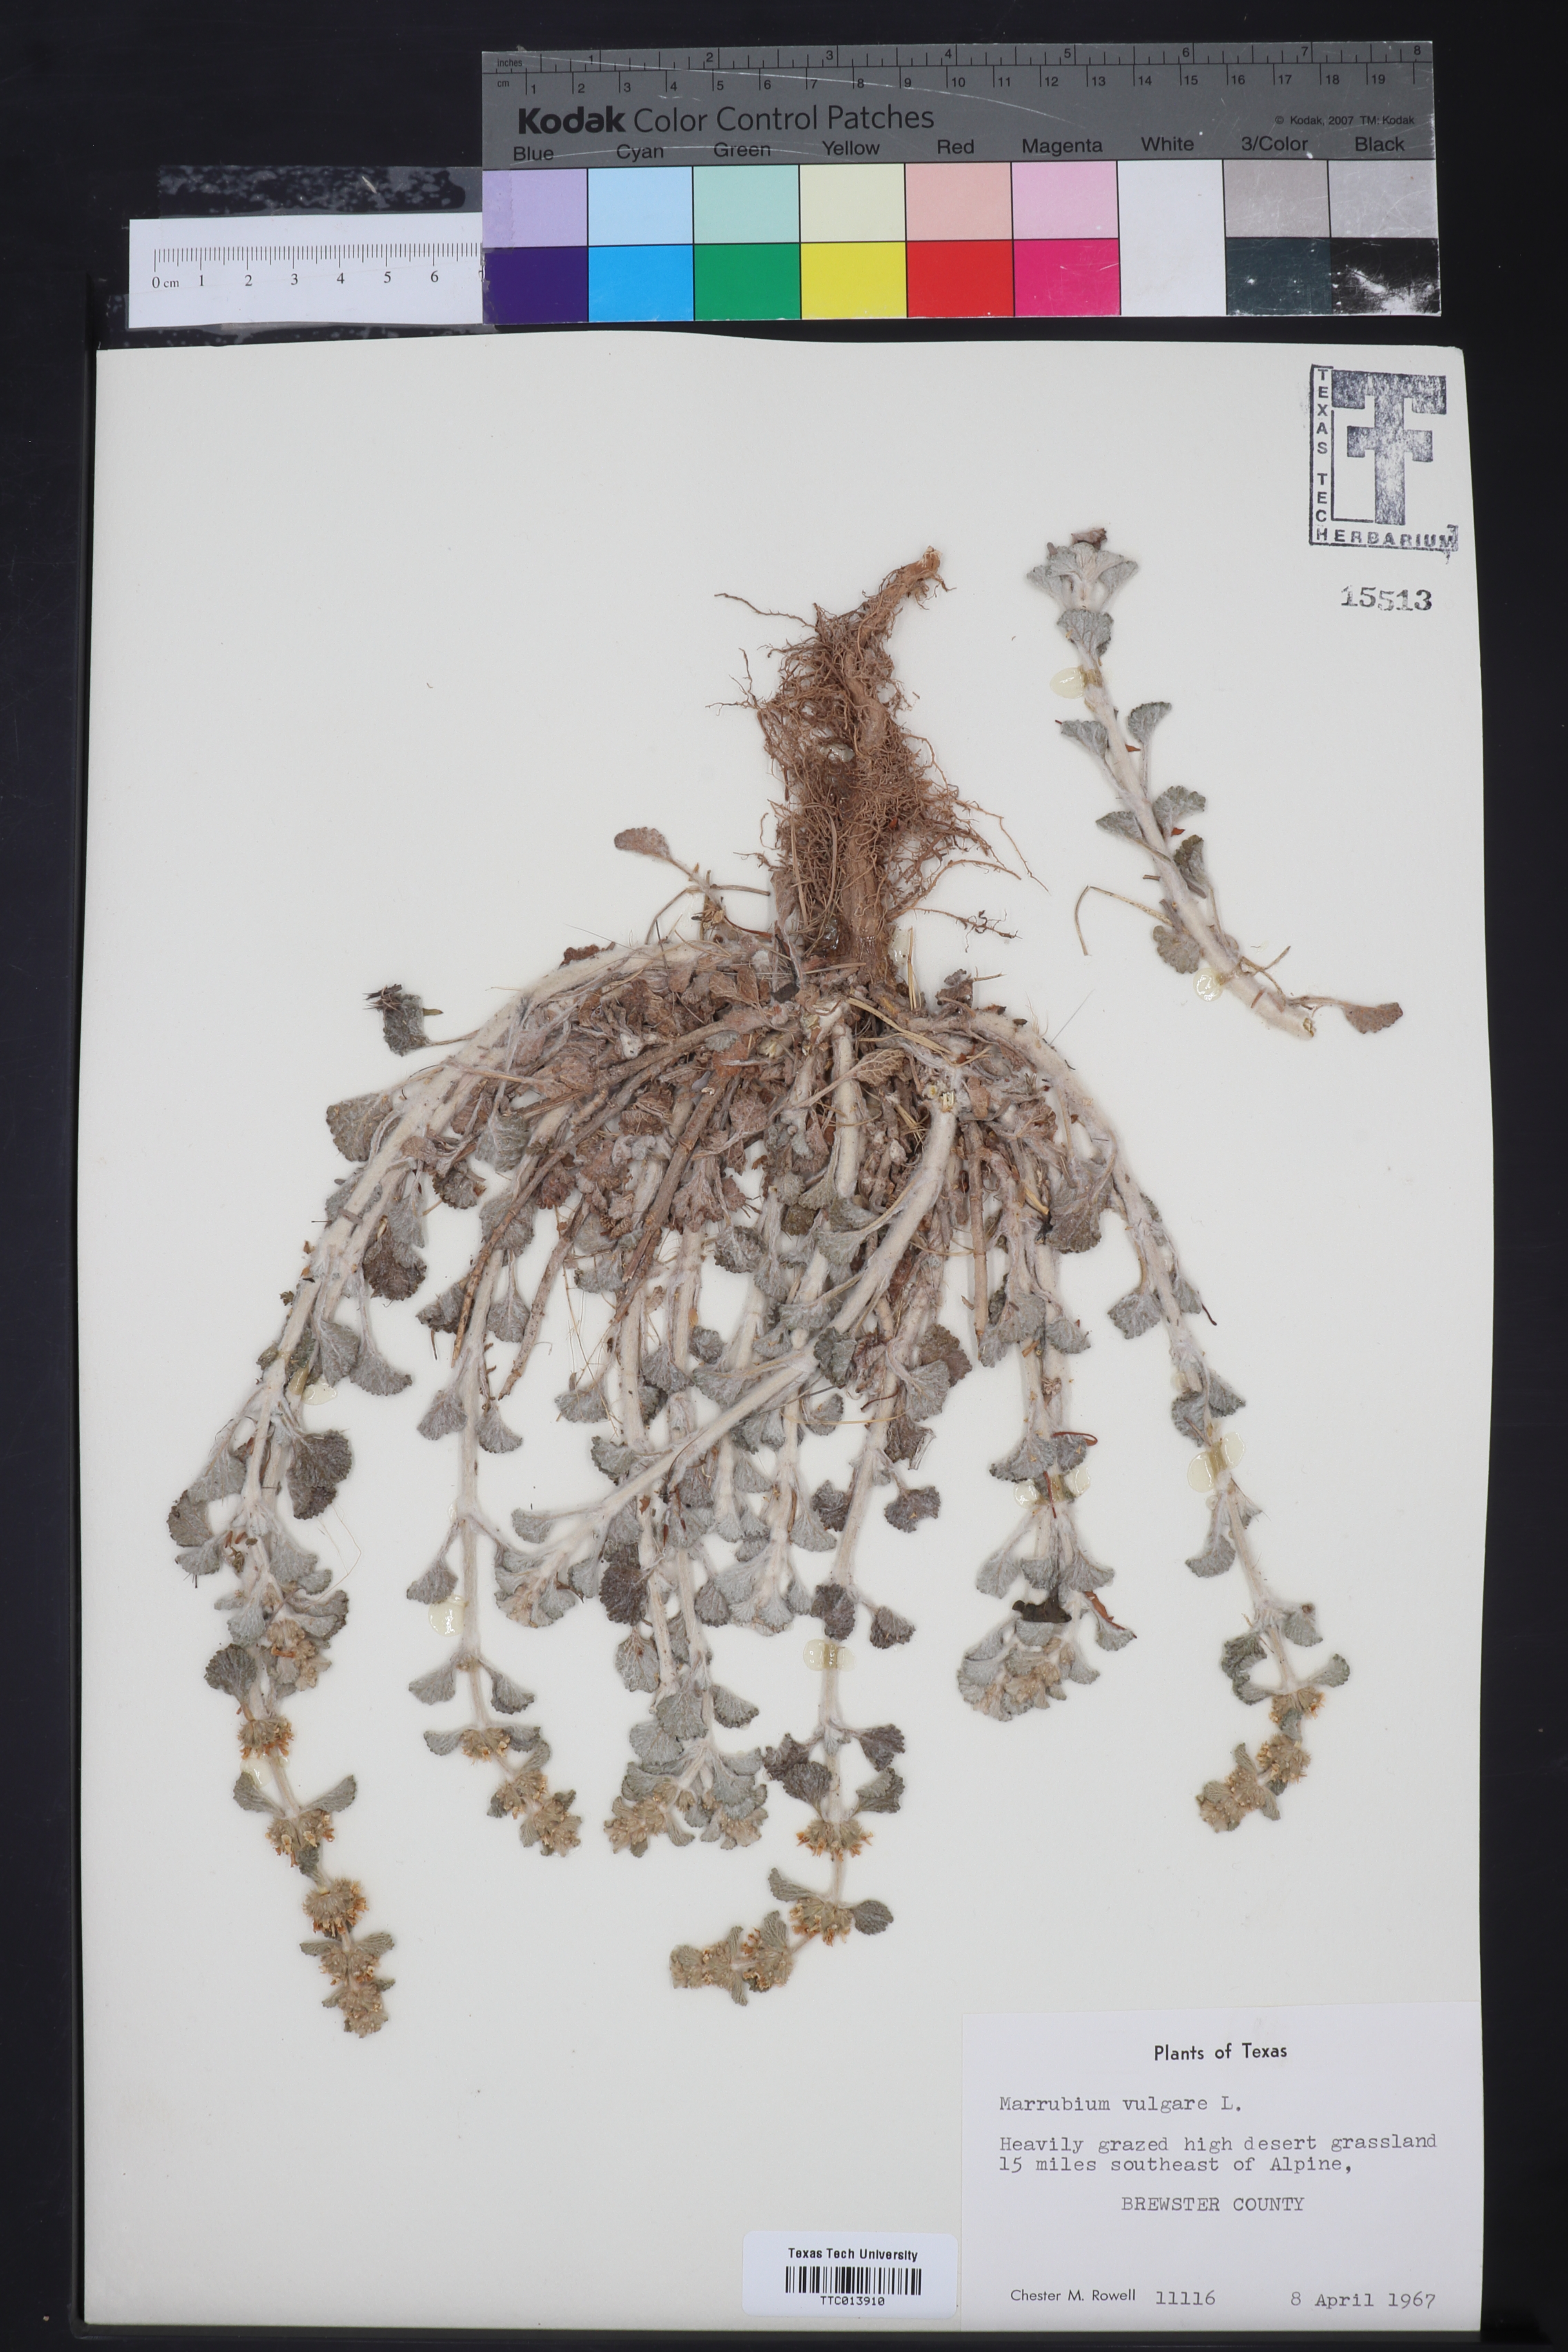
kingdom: Plantae
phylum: Tracheophyta
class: Magnoliopsida
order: Lamiales
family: Lamiaceae
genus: Marrubium
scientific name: Marrubium vulgare
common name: Horehound
